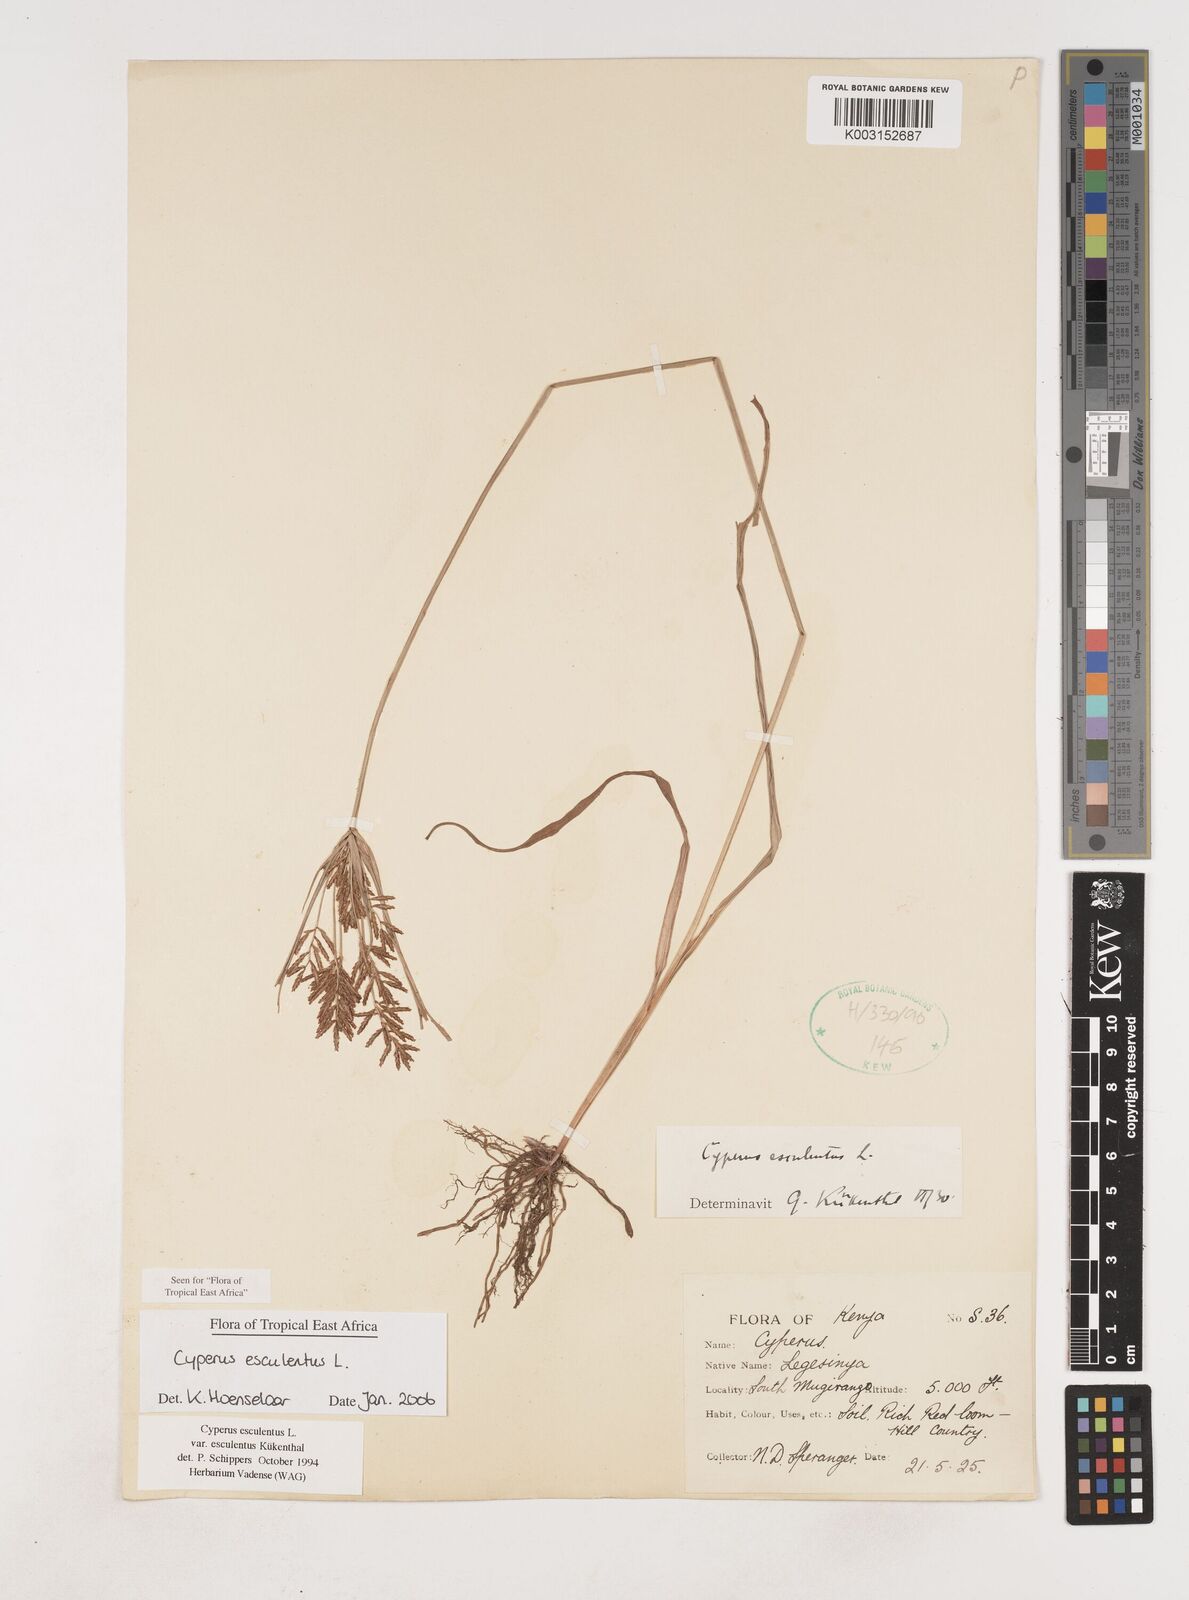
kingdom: Plantae
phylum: Tracheophyta
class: Liliopsida
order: Poales
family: Cyperaceae
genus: Cyperus
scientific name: Cyperus esculentus
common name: Yellow nutsedge
